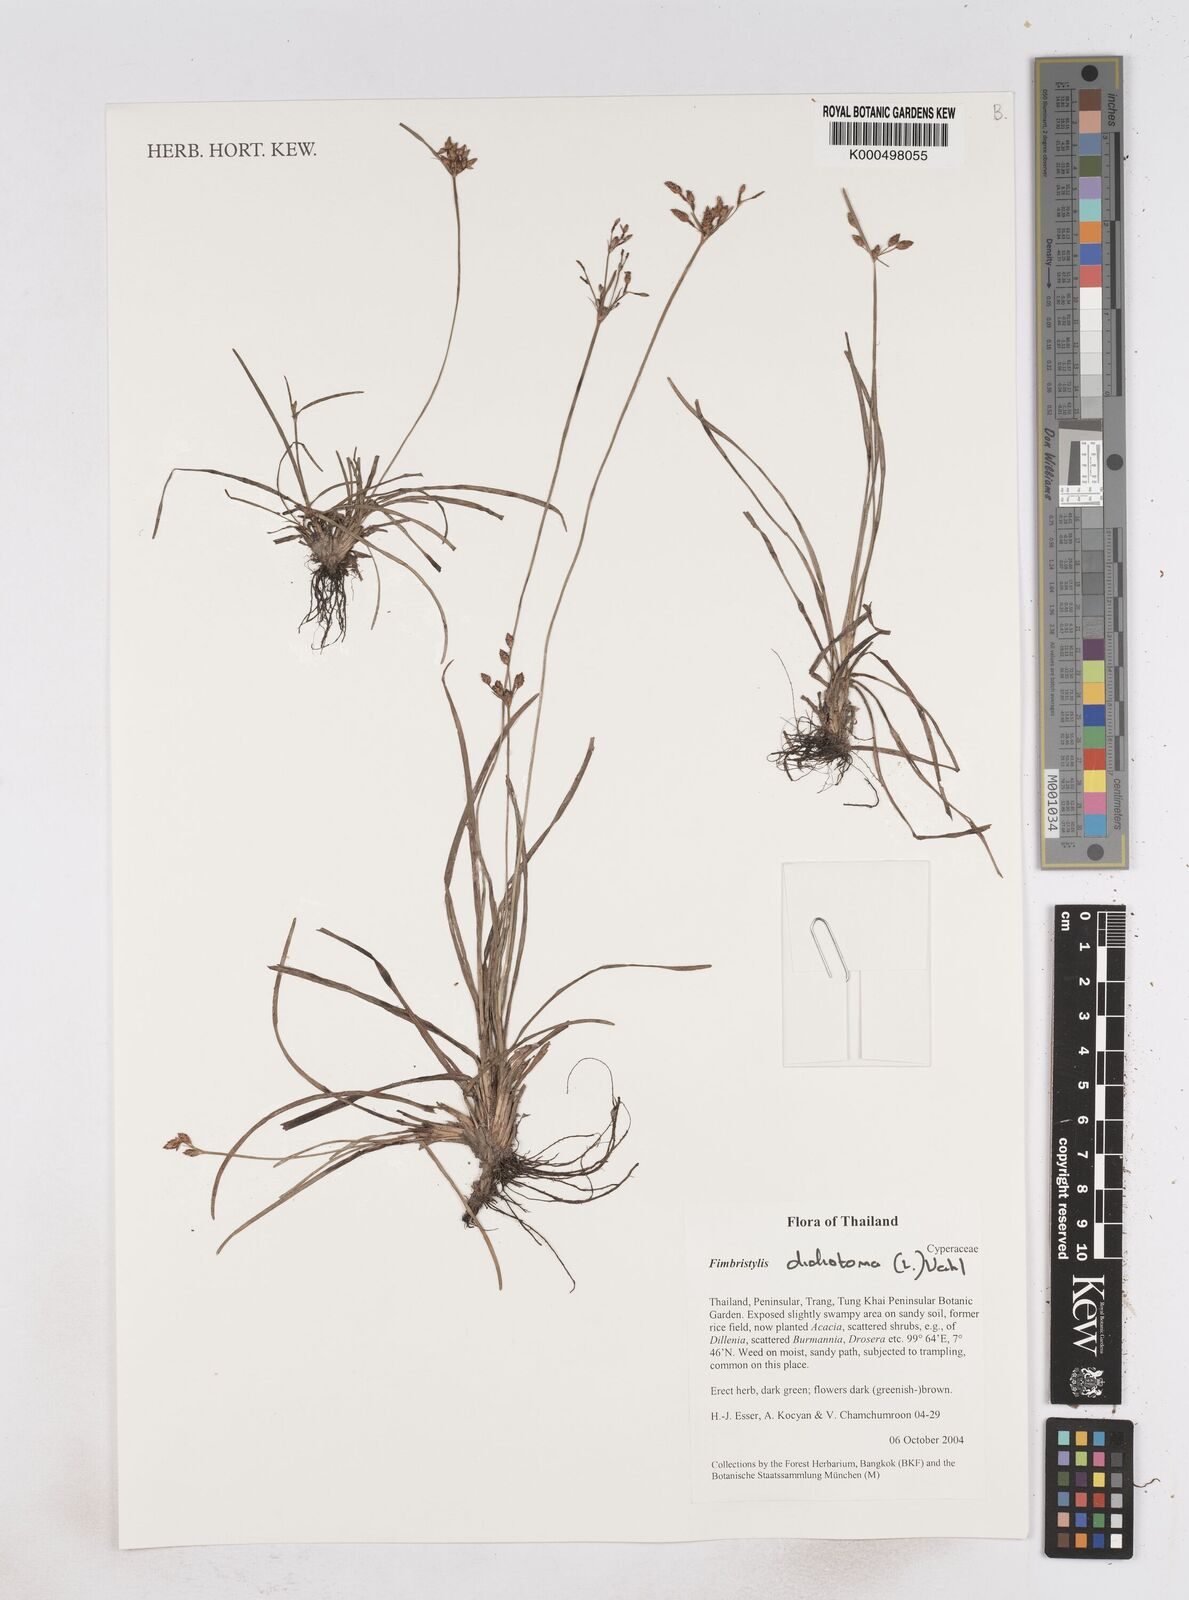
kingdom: Plantae
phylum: Tracheophyta
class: Liliopsida
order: Poales
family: Cyperaceae
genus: Fimbristylis
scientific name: Fimbristylis dichotoma
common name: Forked fimbry
